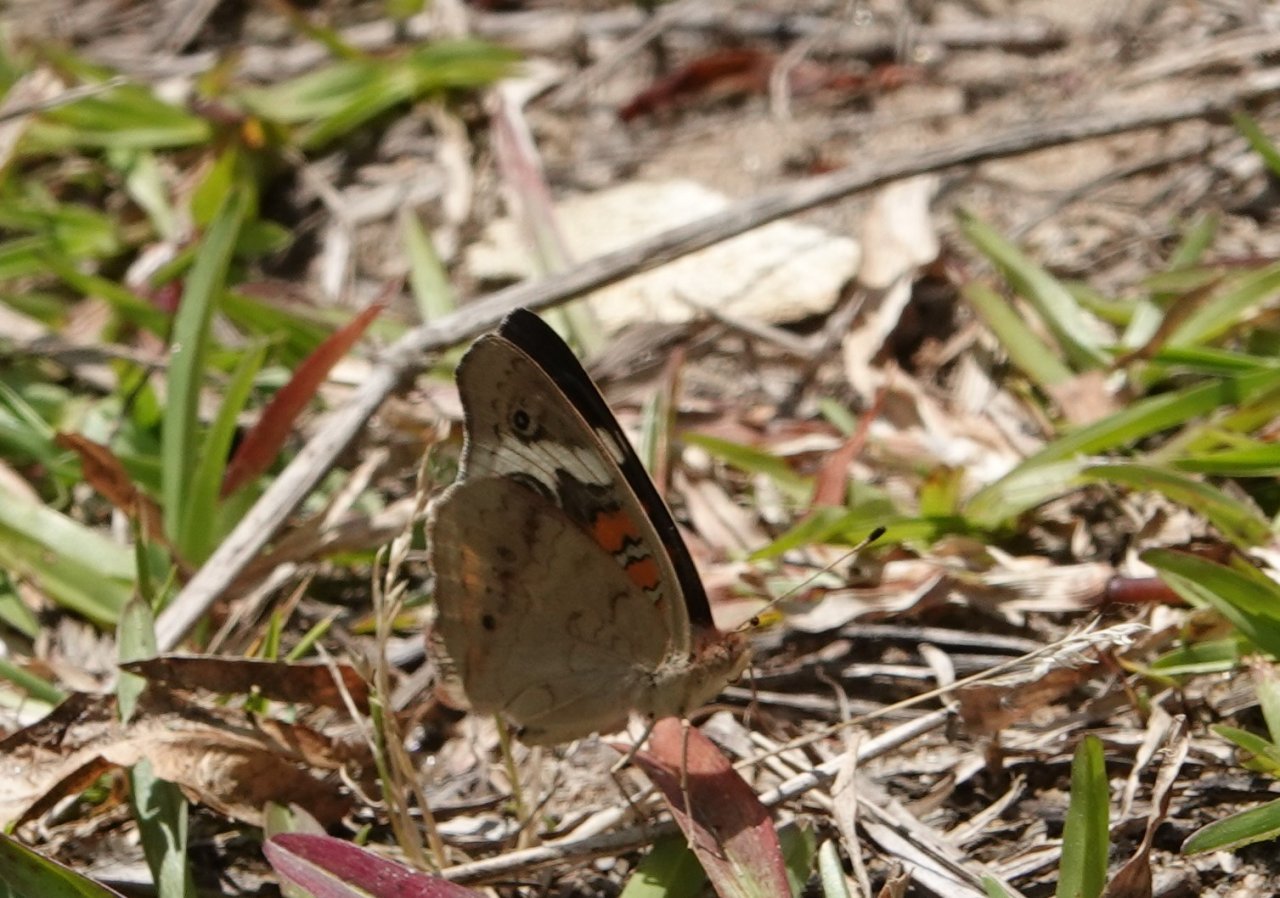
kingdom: Animalia
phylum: Arthropoda
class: Insecta
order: Lepidoptera
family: Nymphalidae
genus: Junonia
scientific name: Junonia coenia
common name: Common Buckeye
